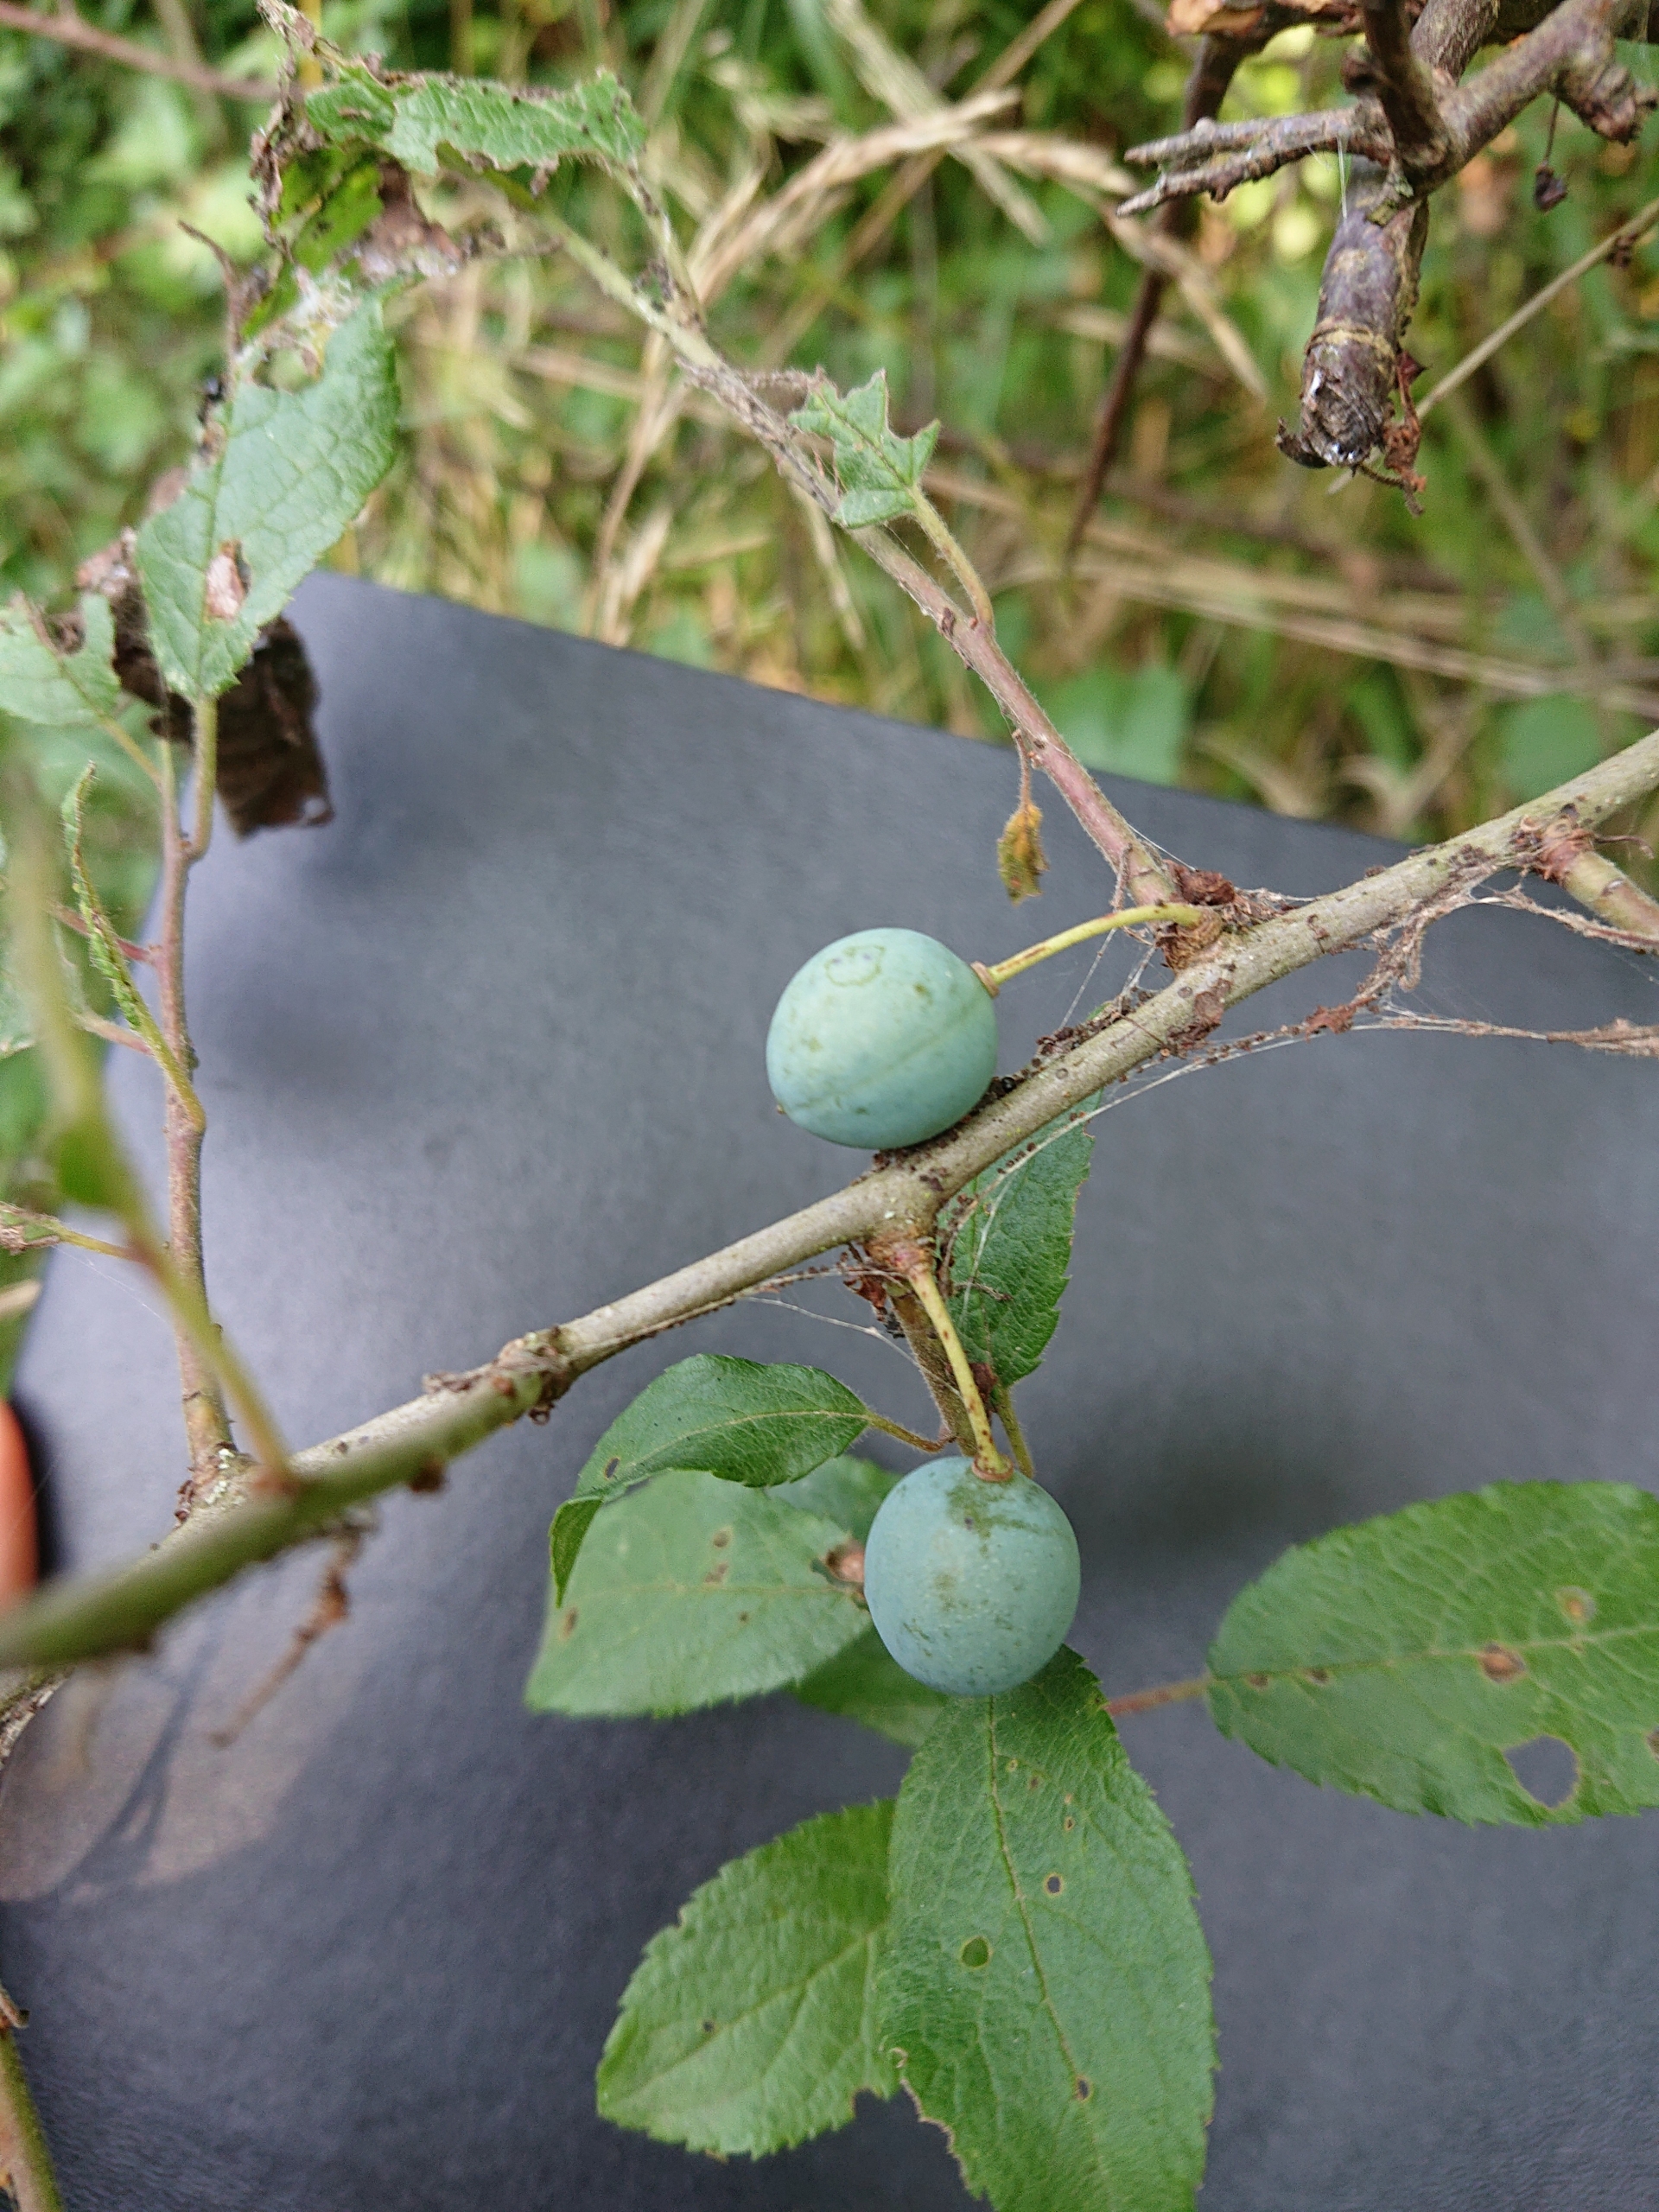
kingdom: Plantae
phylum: Tracheophyta
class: Magnoliopsida
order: Rosales
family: Rosaceae
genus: Prunus
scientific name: Prunus spinosa
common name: Slåen
